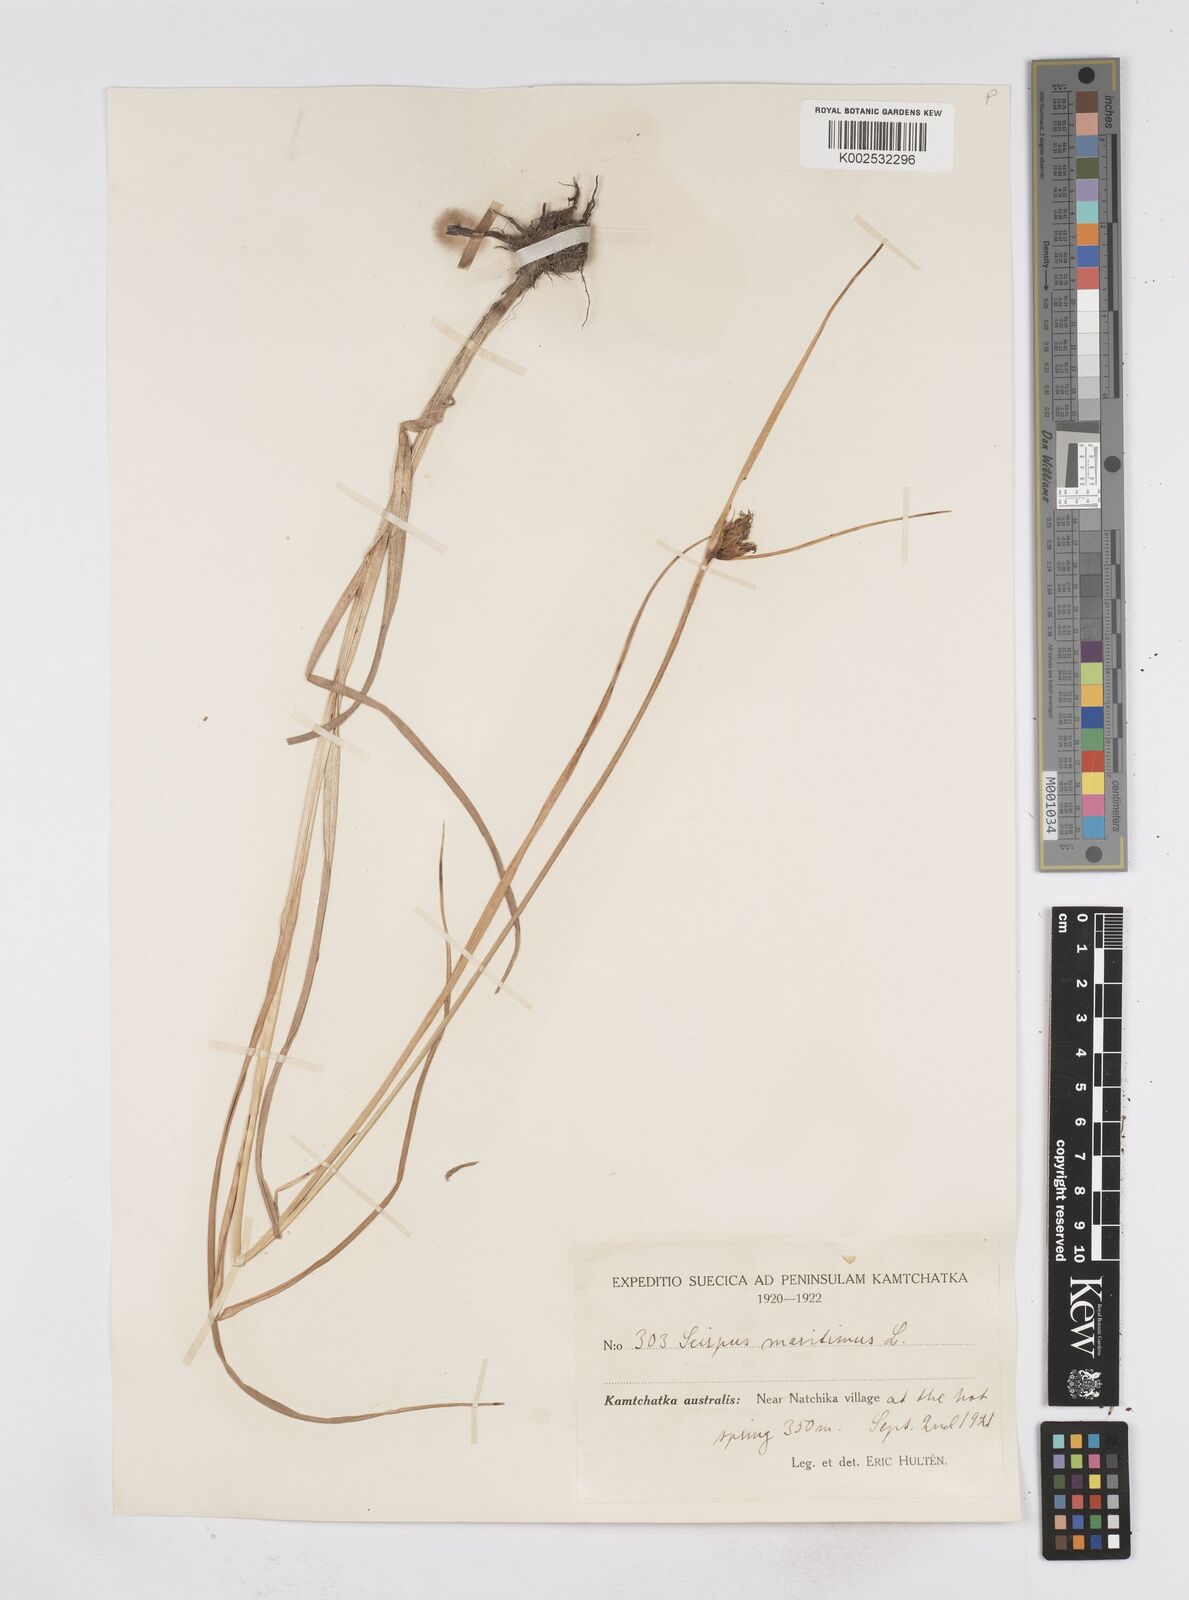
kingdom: Plantae
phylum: Tracheophyta
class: Liliopsida
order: Poales
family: Cyperaceae
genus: Bolboschoenus
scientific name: Bolboschoenus maritimus
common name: Sea club-rush
